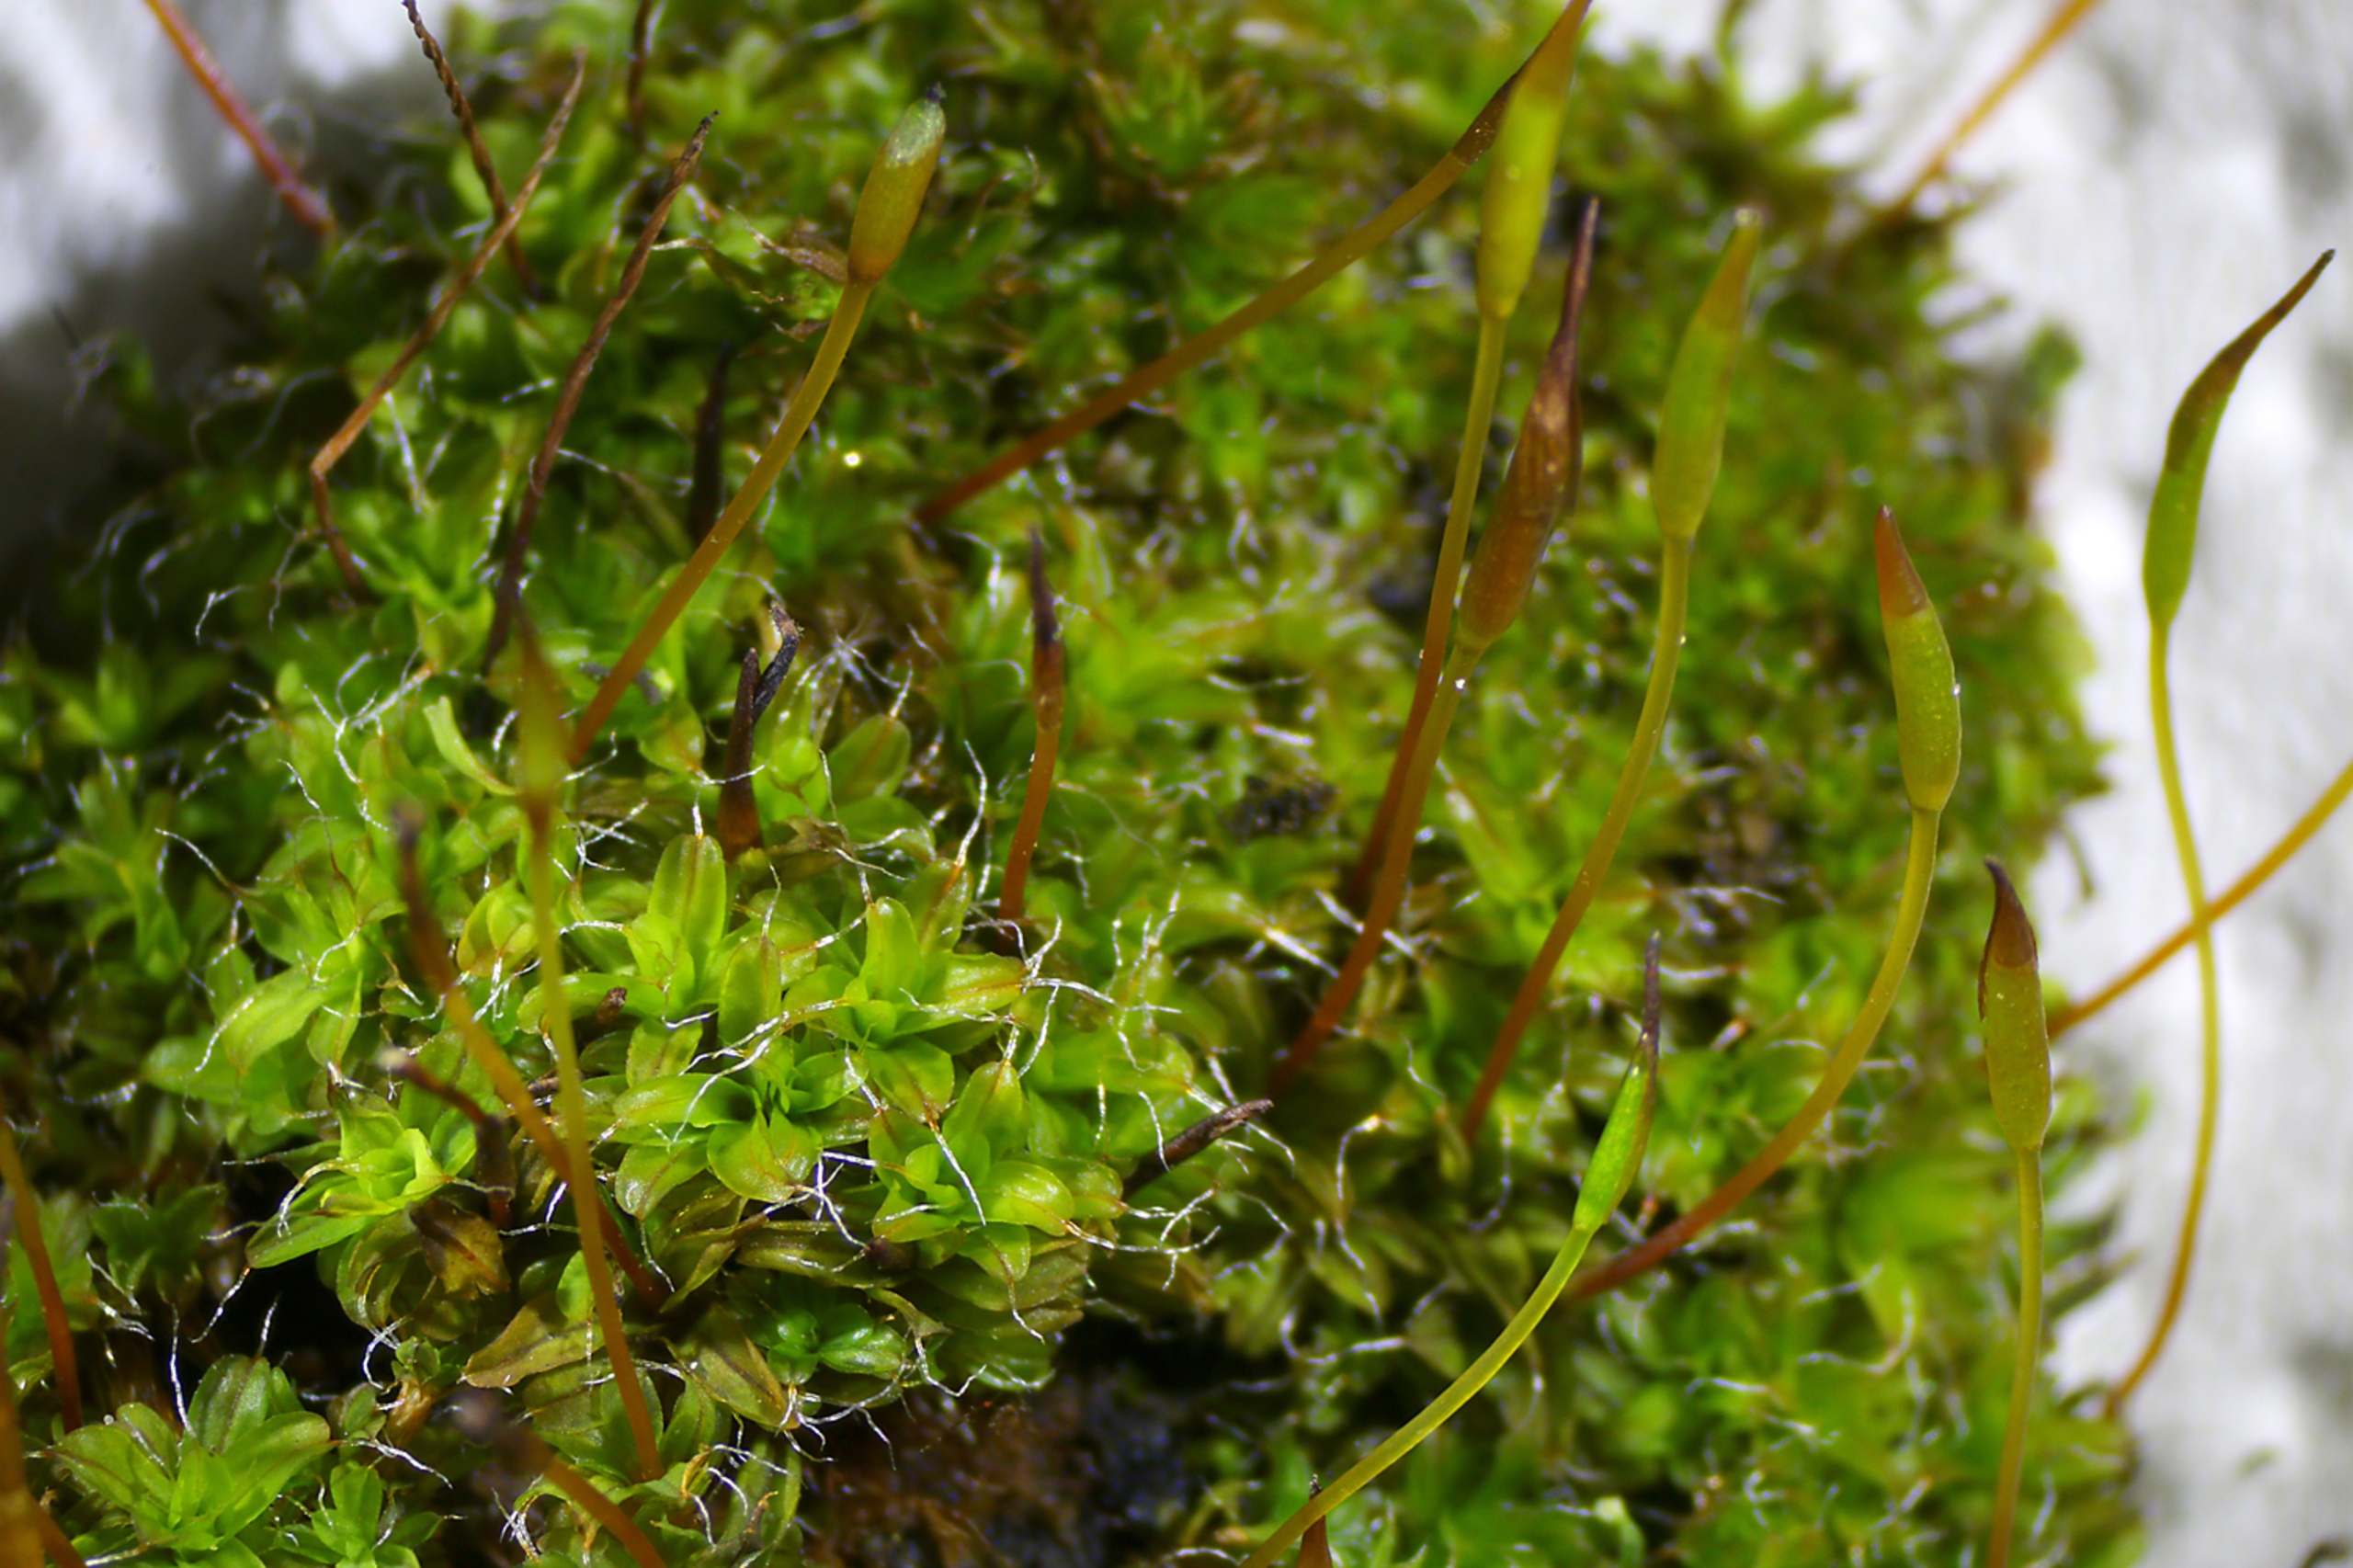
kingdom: Plantae
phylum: Bryophyta
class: Bryopsida
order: Pottiales
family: Pottiaceae
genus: Syntrichia
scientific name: Syntrichia virescens
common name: Grøn hårstjerne
